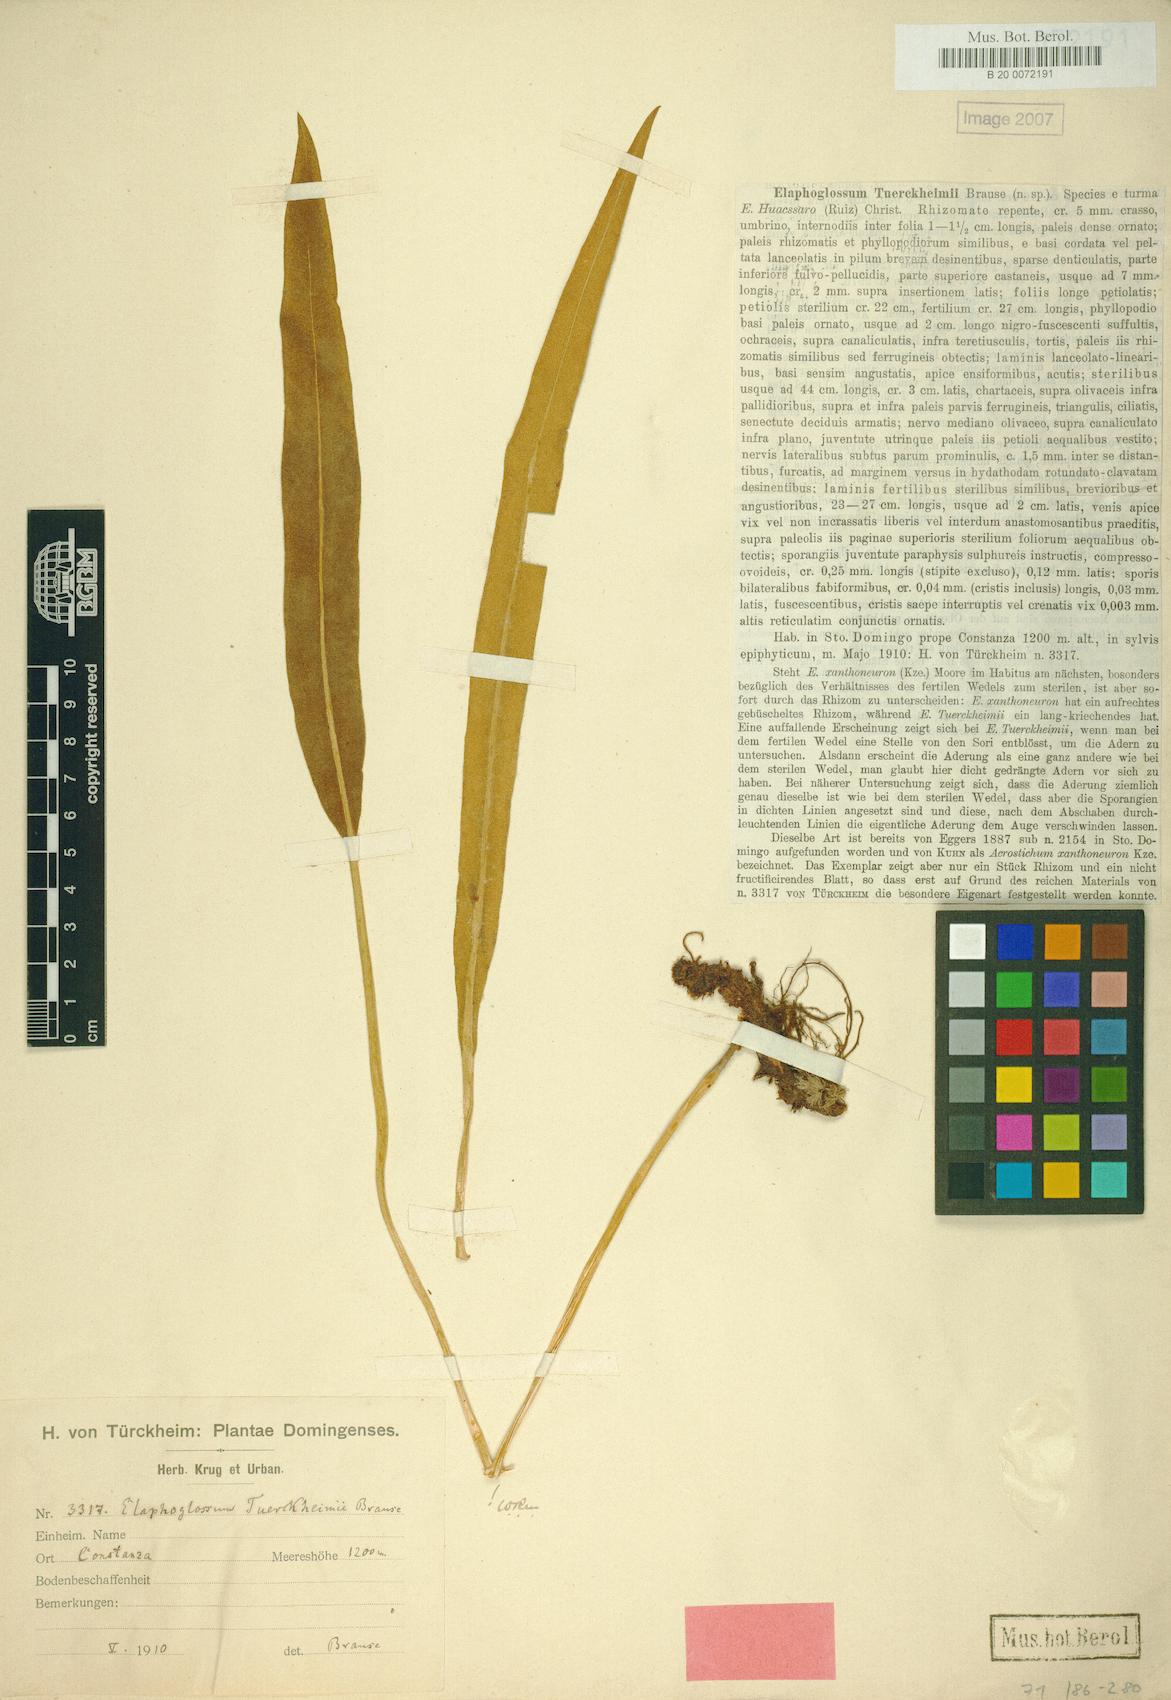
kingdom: Plantae
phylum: Tracheophyta
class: Polypodiopsida
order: Polypodiales
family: Dryopteridaceae
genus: Elaphoglossum
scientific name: Elaphoglossum tuerckheimii
